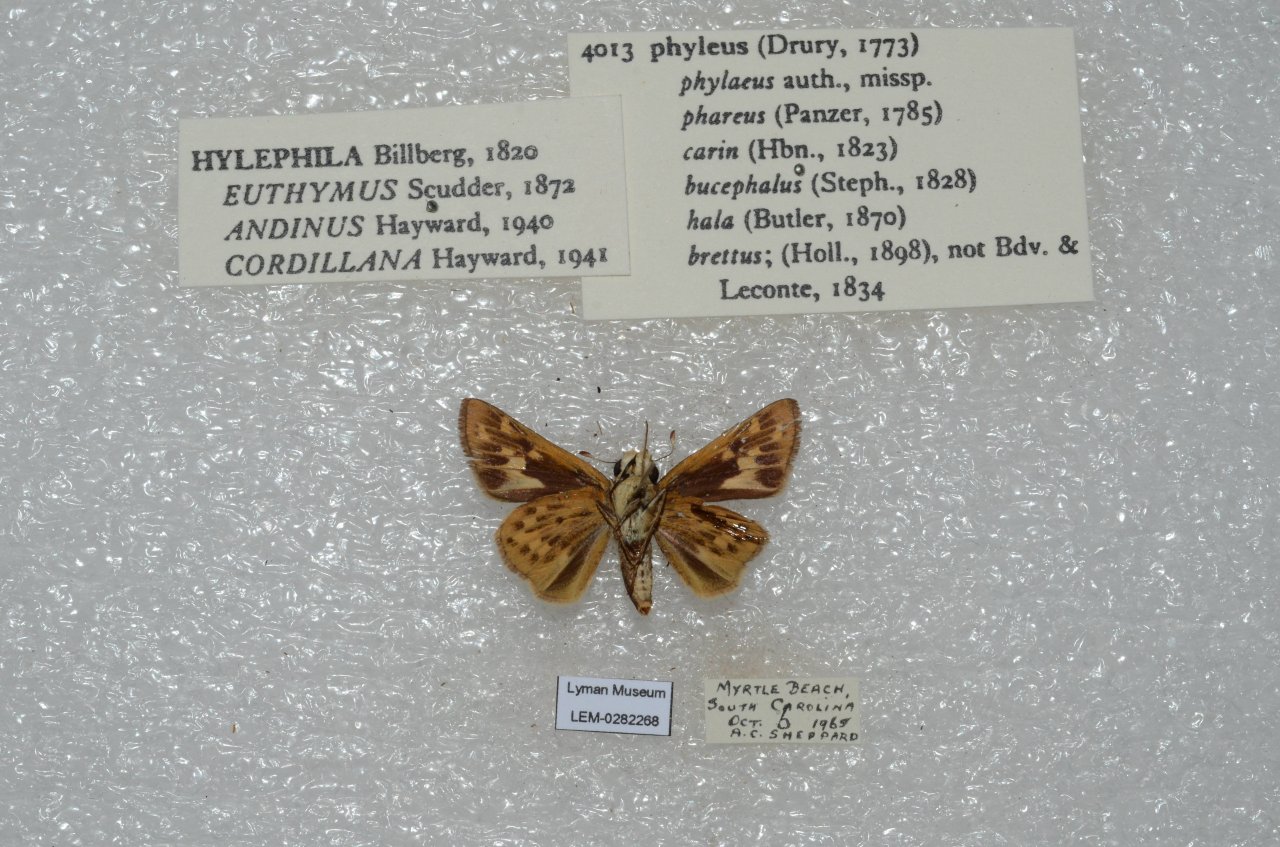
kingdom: Animalia
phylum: Arthropoda
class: Insecta
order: Lepidoptera
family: Hesperiidae
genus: Hylephila
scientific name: Hylephila phyleus
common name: Fiery Skipper
